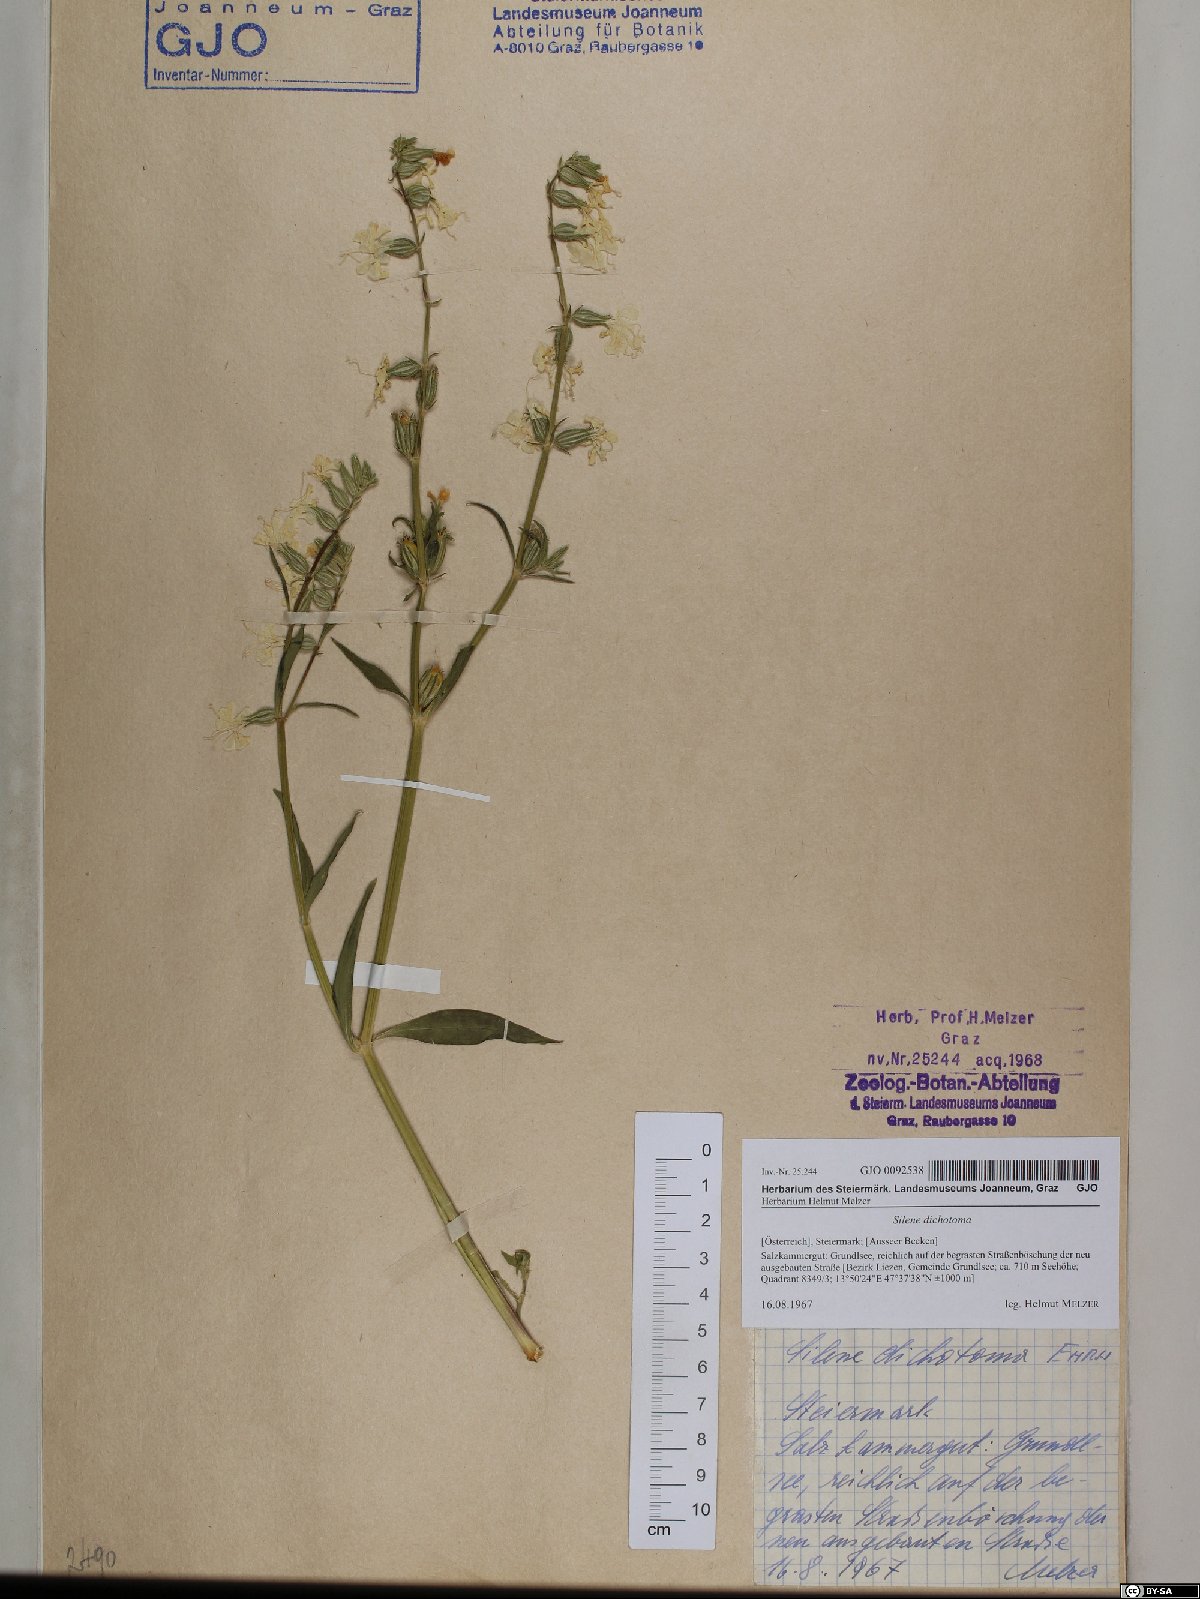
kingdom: Plantae
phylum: Tracheophyta
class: Magnoliopsida
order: Caryophyllales
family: Caryophyllaceae
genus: Silene
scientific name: Silene dichotoma
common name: Forked catchfly
